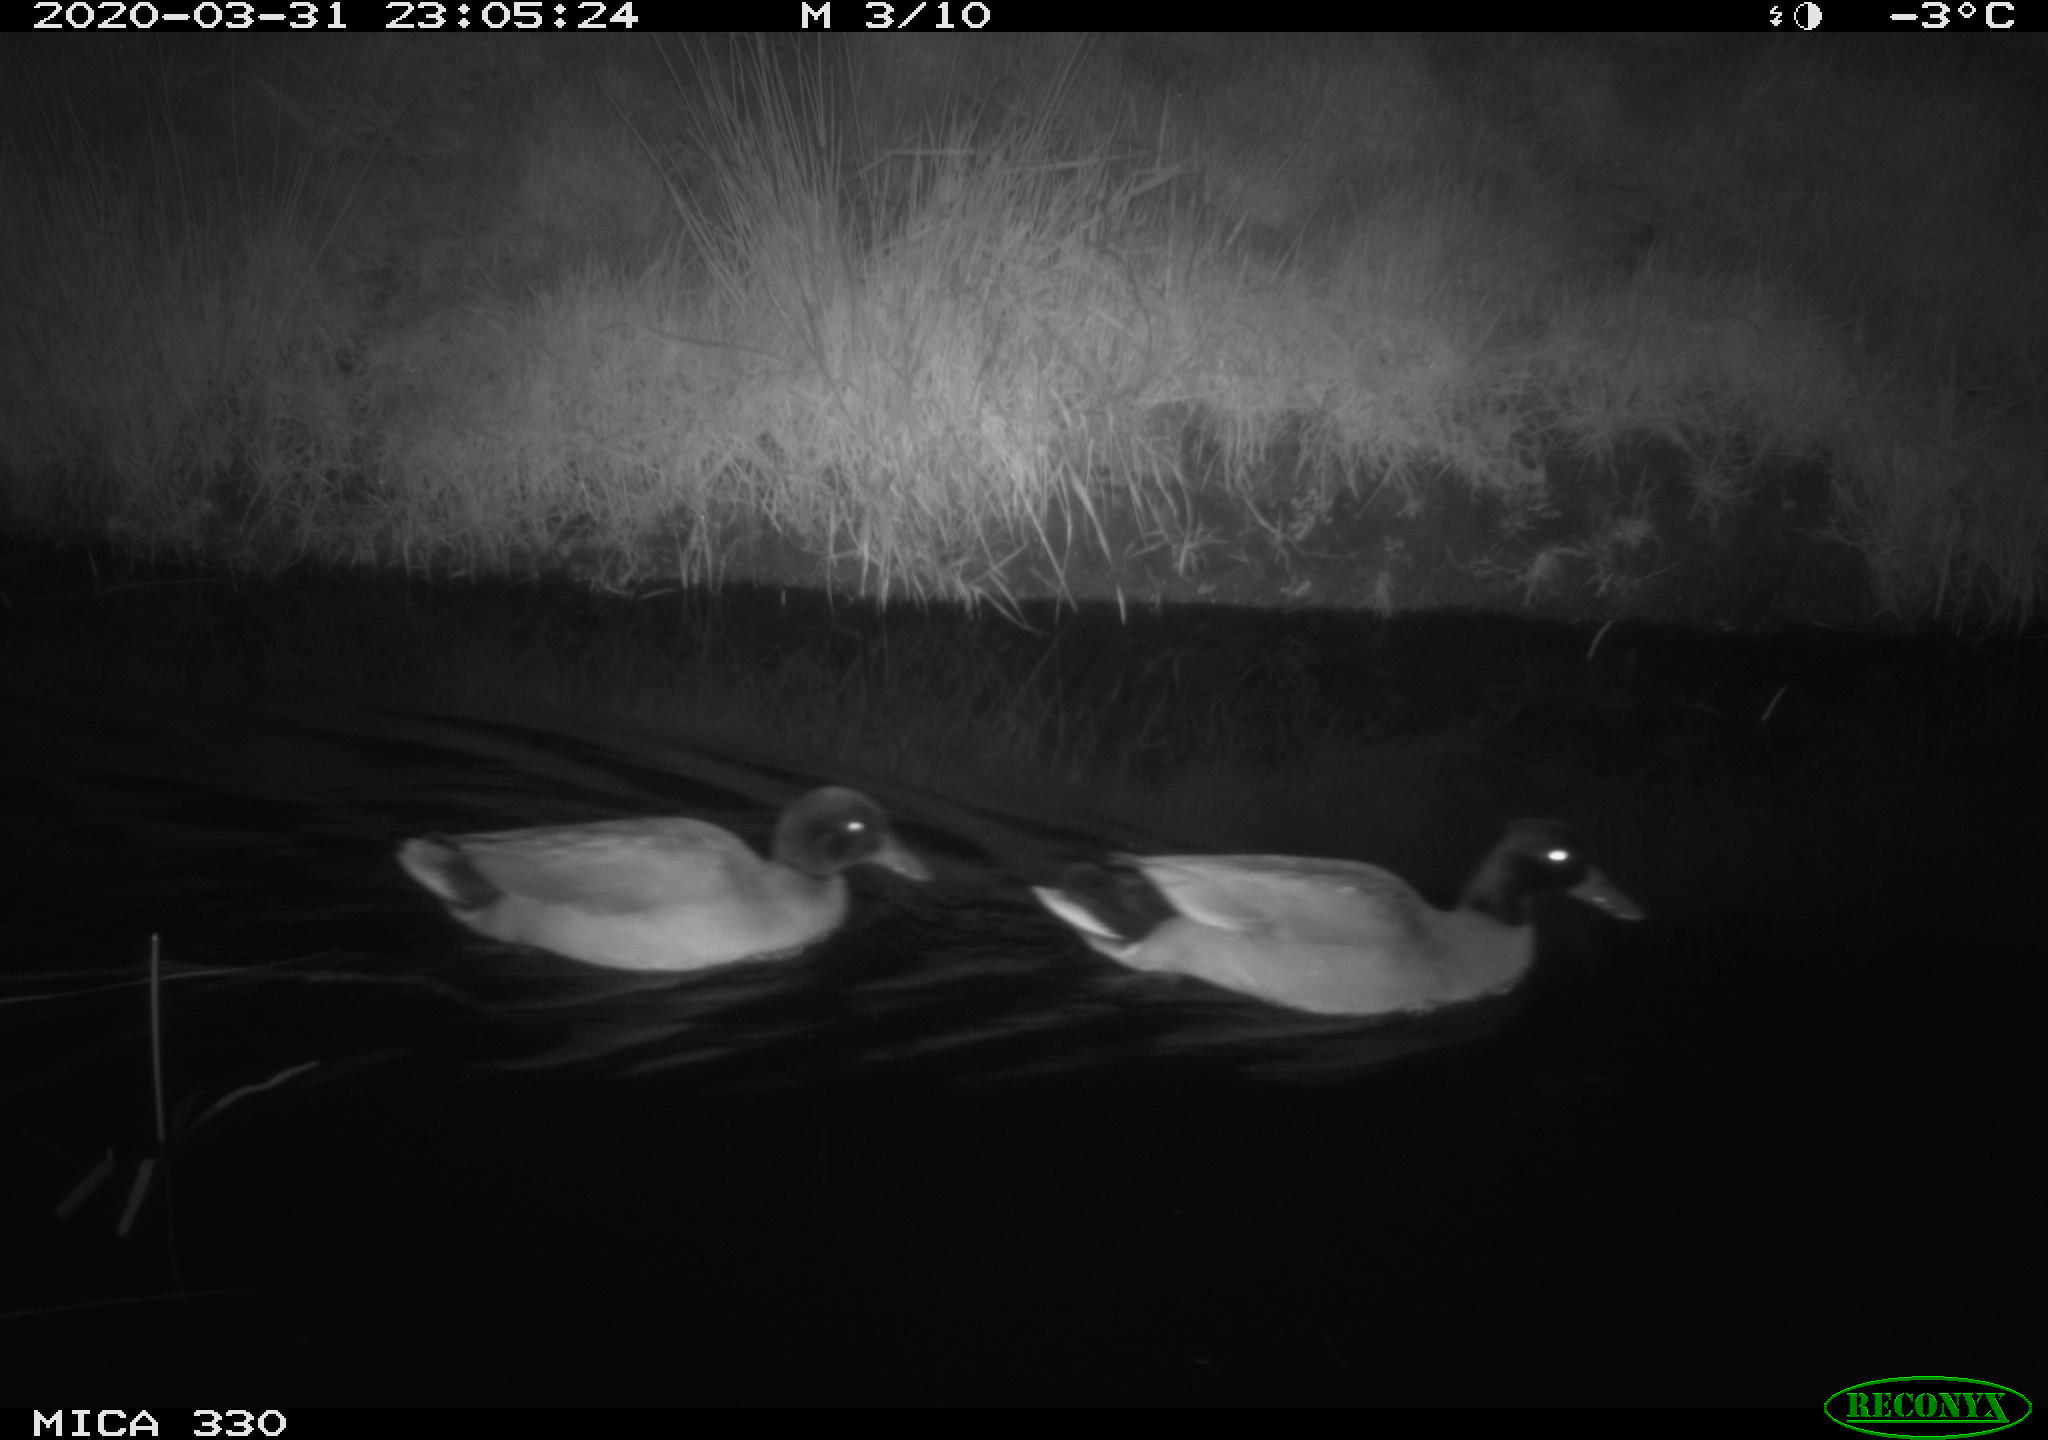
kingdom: Animalia
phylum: Chordata
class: Aves
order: Anseriformes
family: Anatidae
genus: Anas
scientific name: Anas platyrhynchos
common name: Mallard
